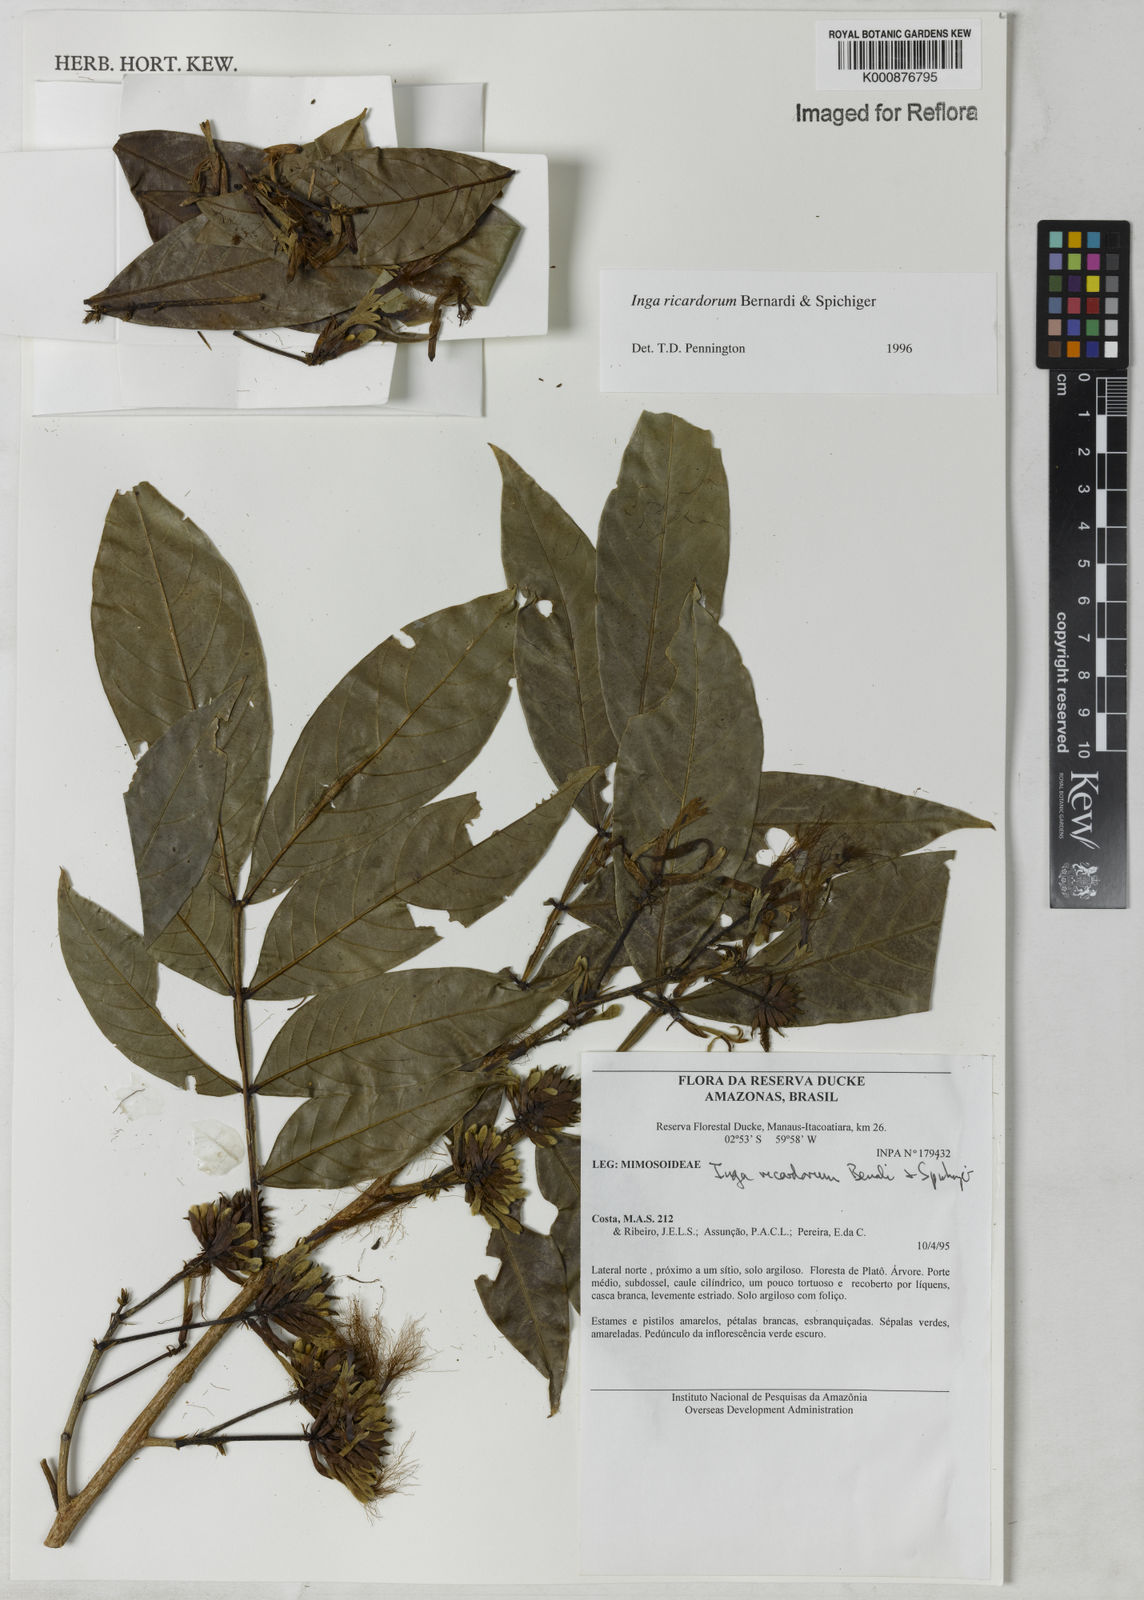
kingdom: Plantae
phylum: Tracheophyta
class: Magnoliopsida
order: Fabales
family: Fabaceae
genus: Inga
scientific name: Inga chrysantha
